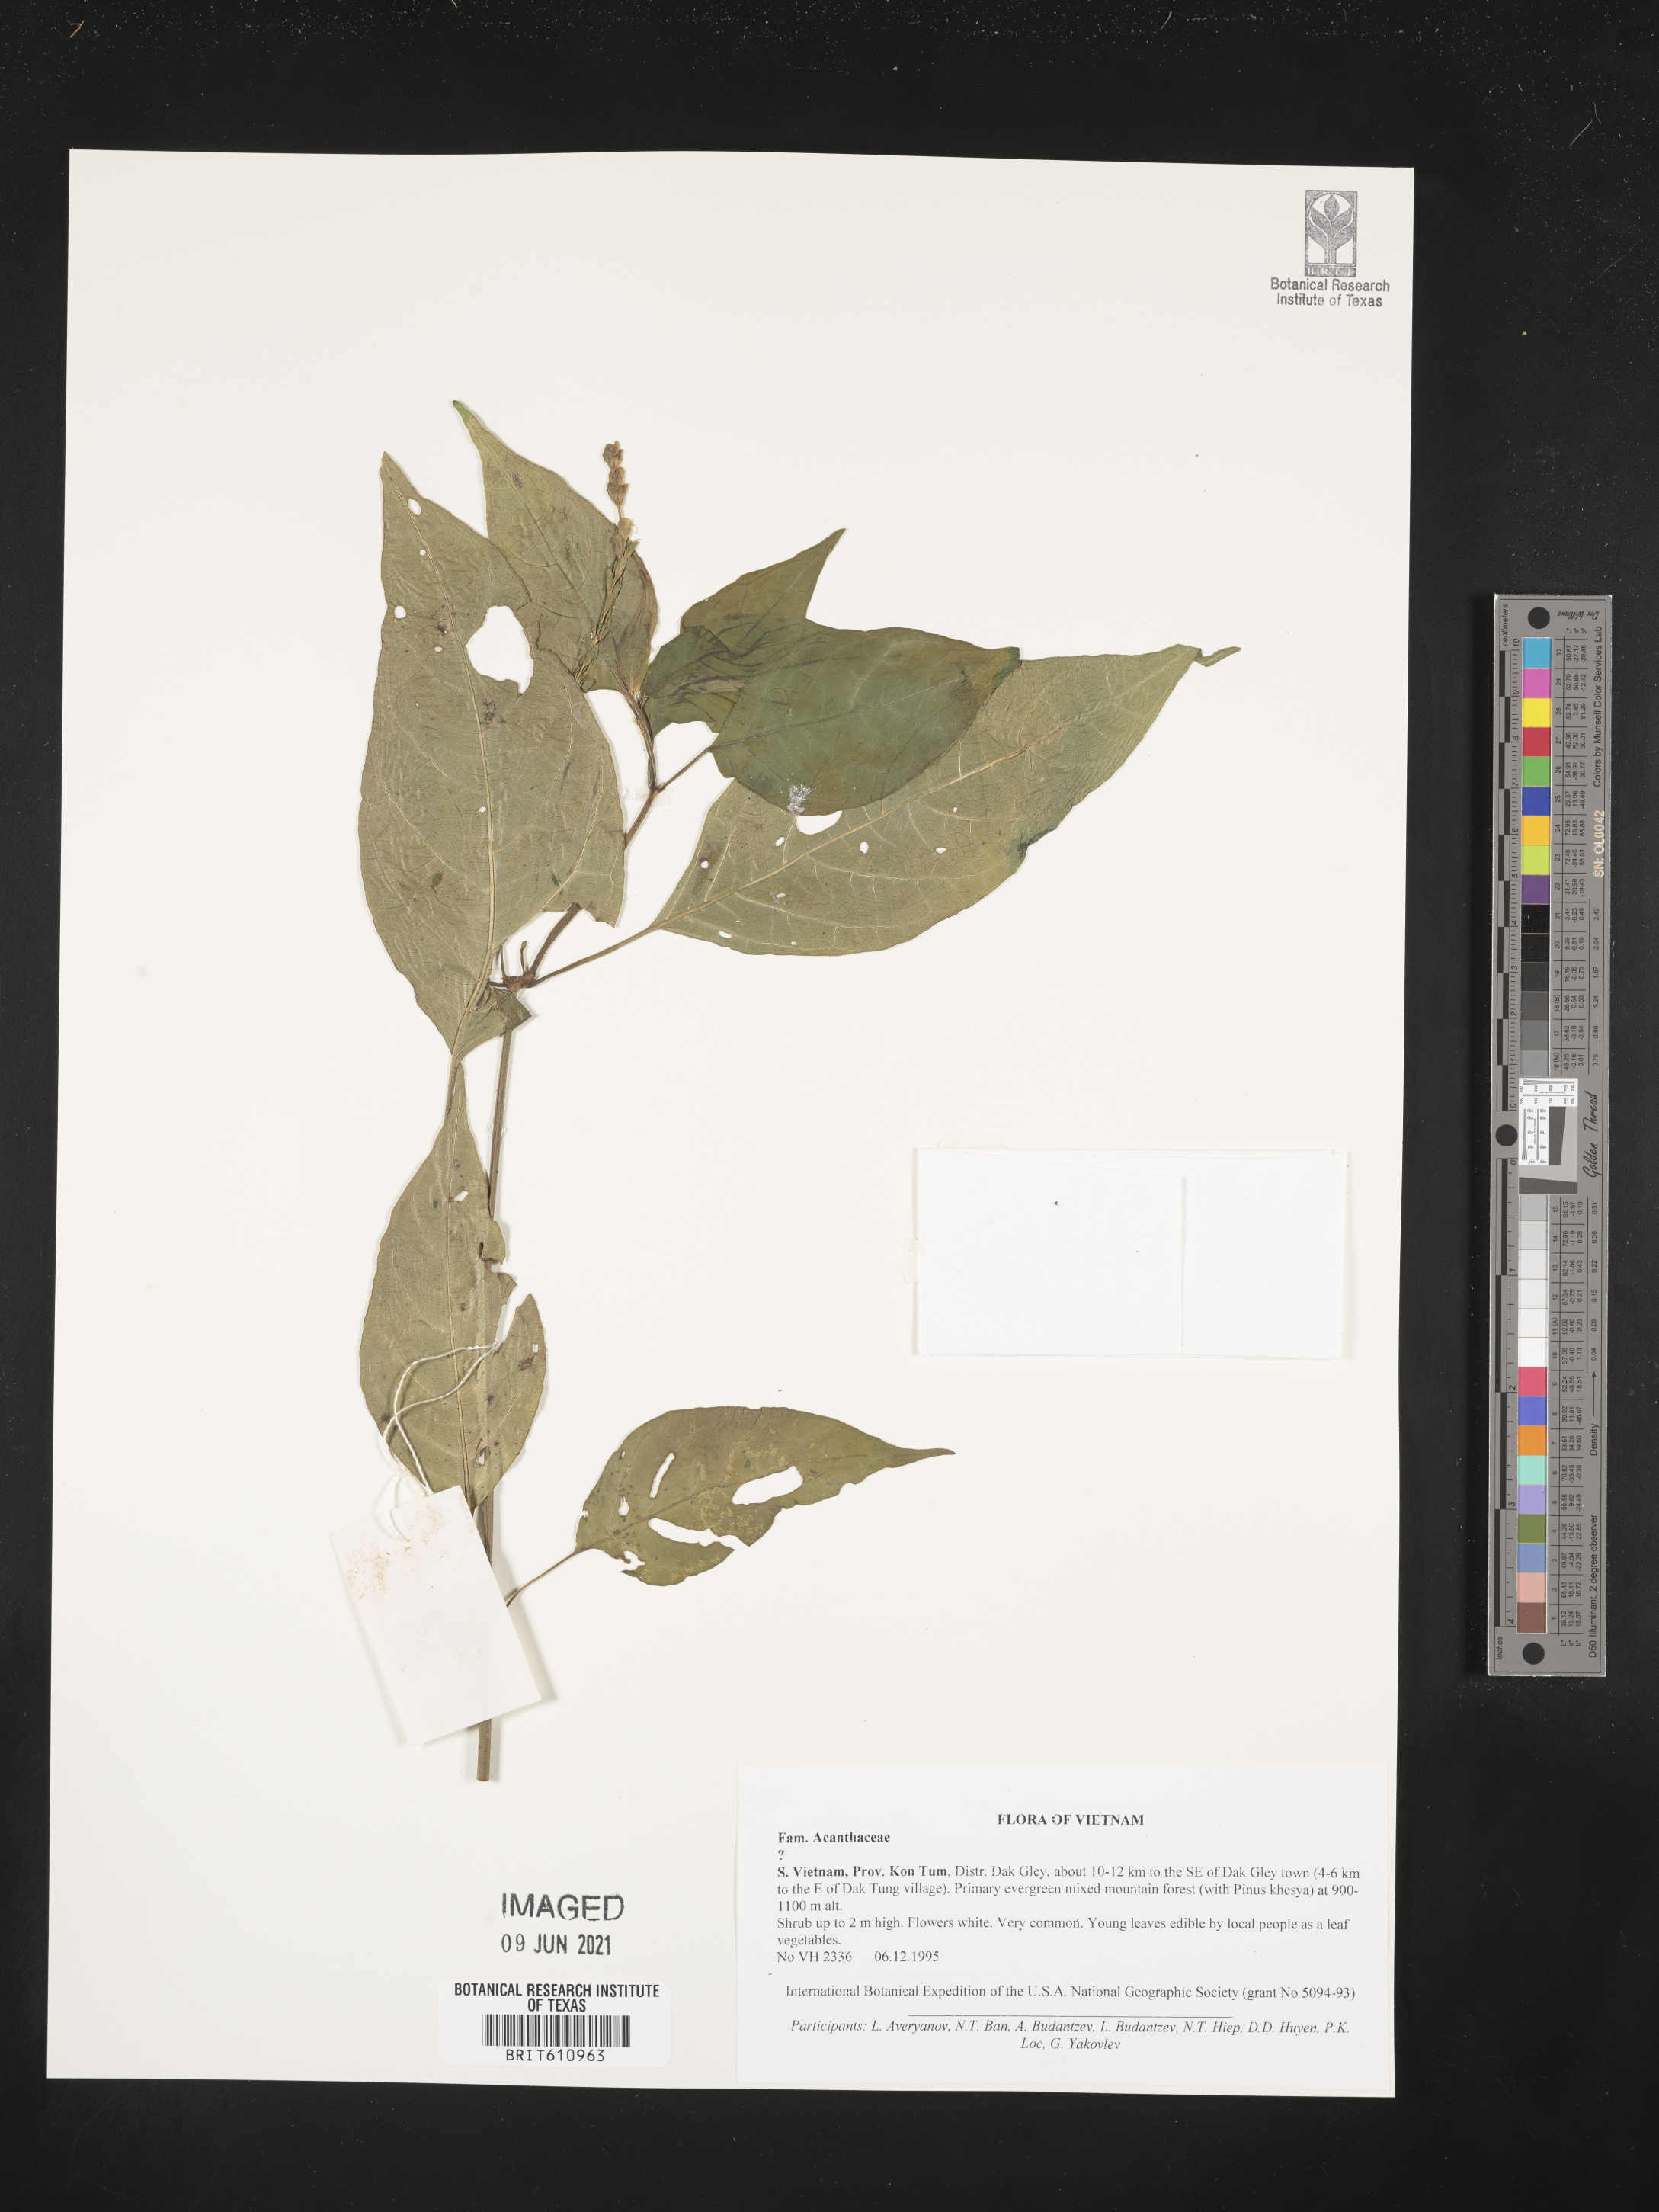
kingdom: Plantae
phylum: Tracheophyta
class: Magnoliopsida
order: Lamiales
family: Acanthaceae
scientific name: Acanthaceae
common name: Acanthaceae
